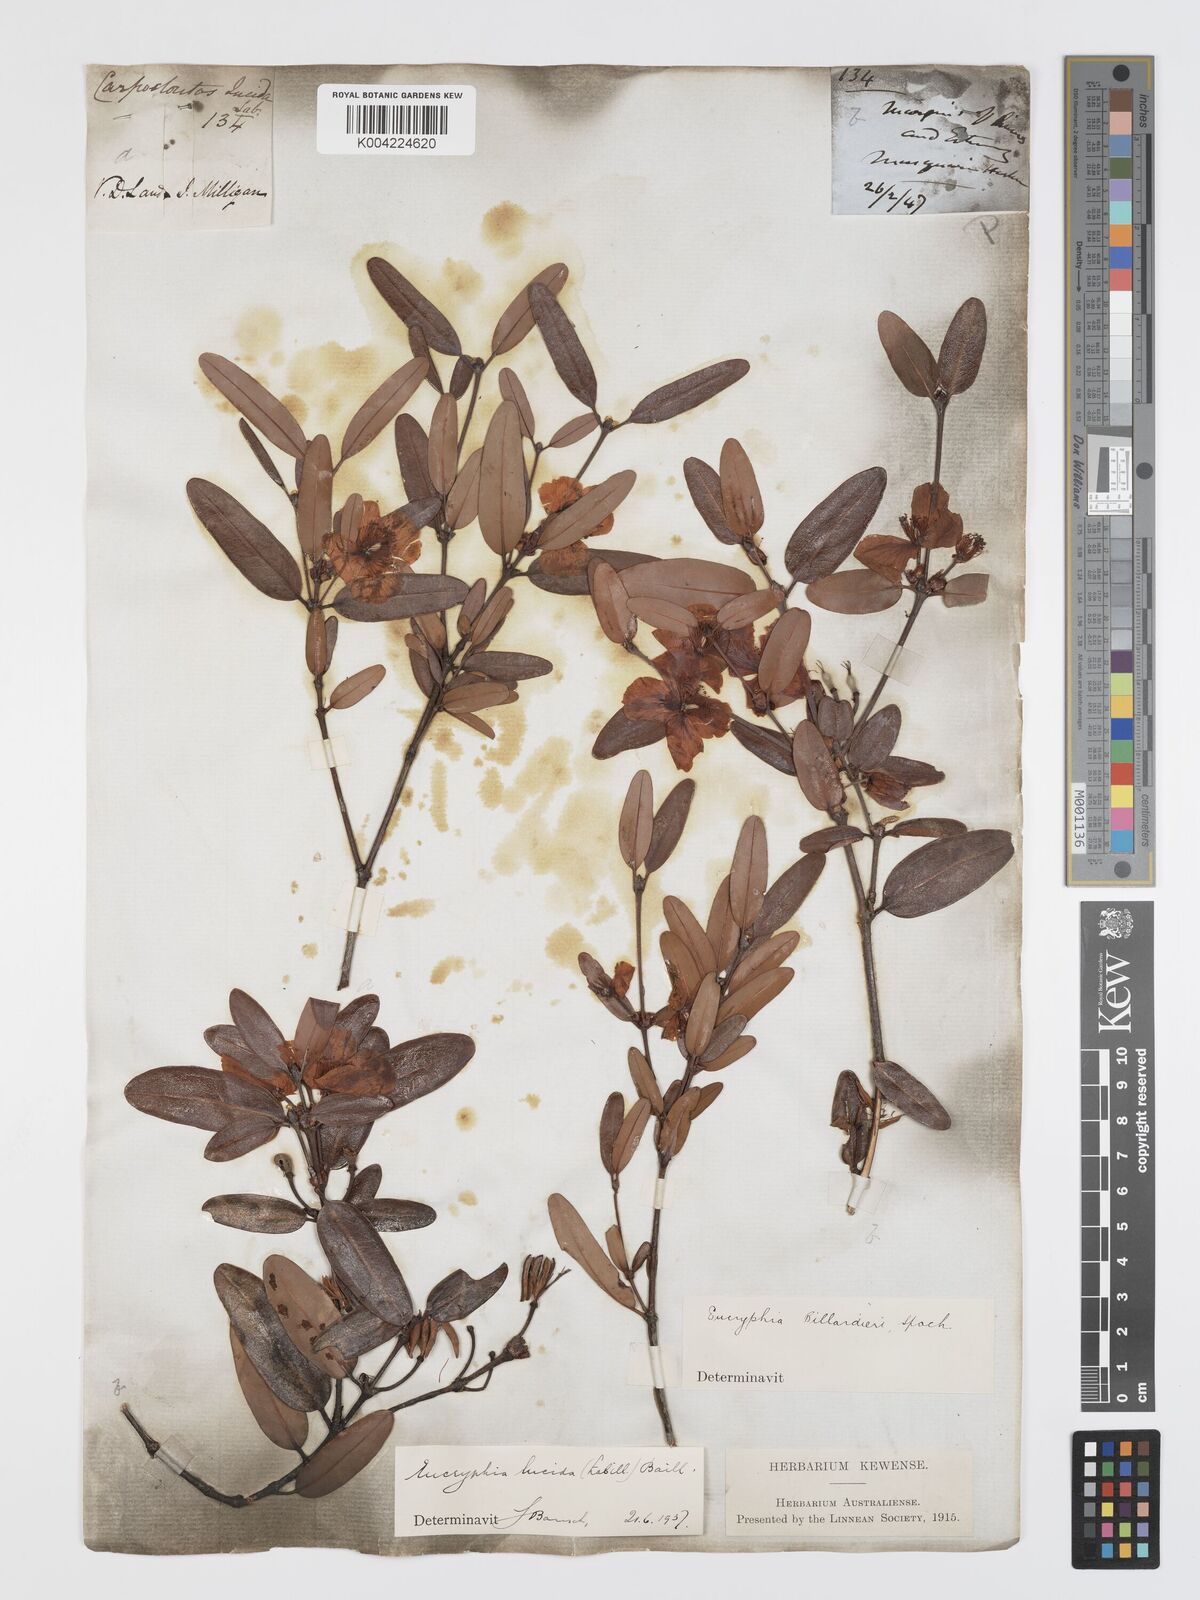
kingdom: Plantae
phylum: Tracheophyta
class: Magnoliopsida
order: Oxalidales
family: Cunoniaceae
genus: Eucryphia
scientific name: Eucryphia lucida
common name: Leatherwood
